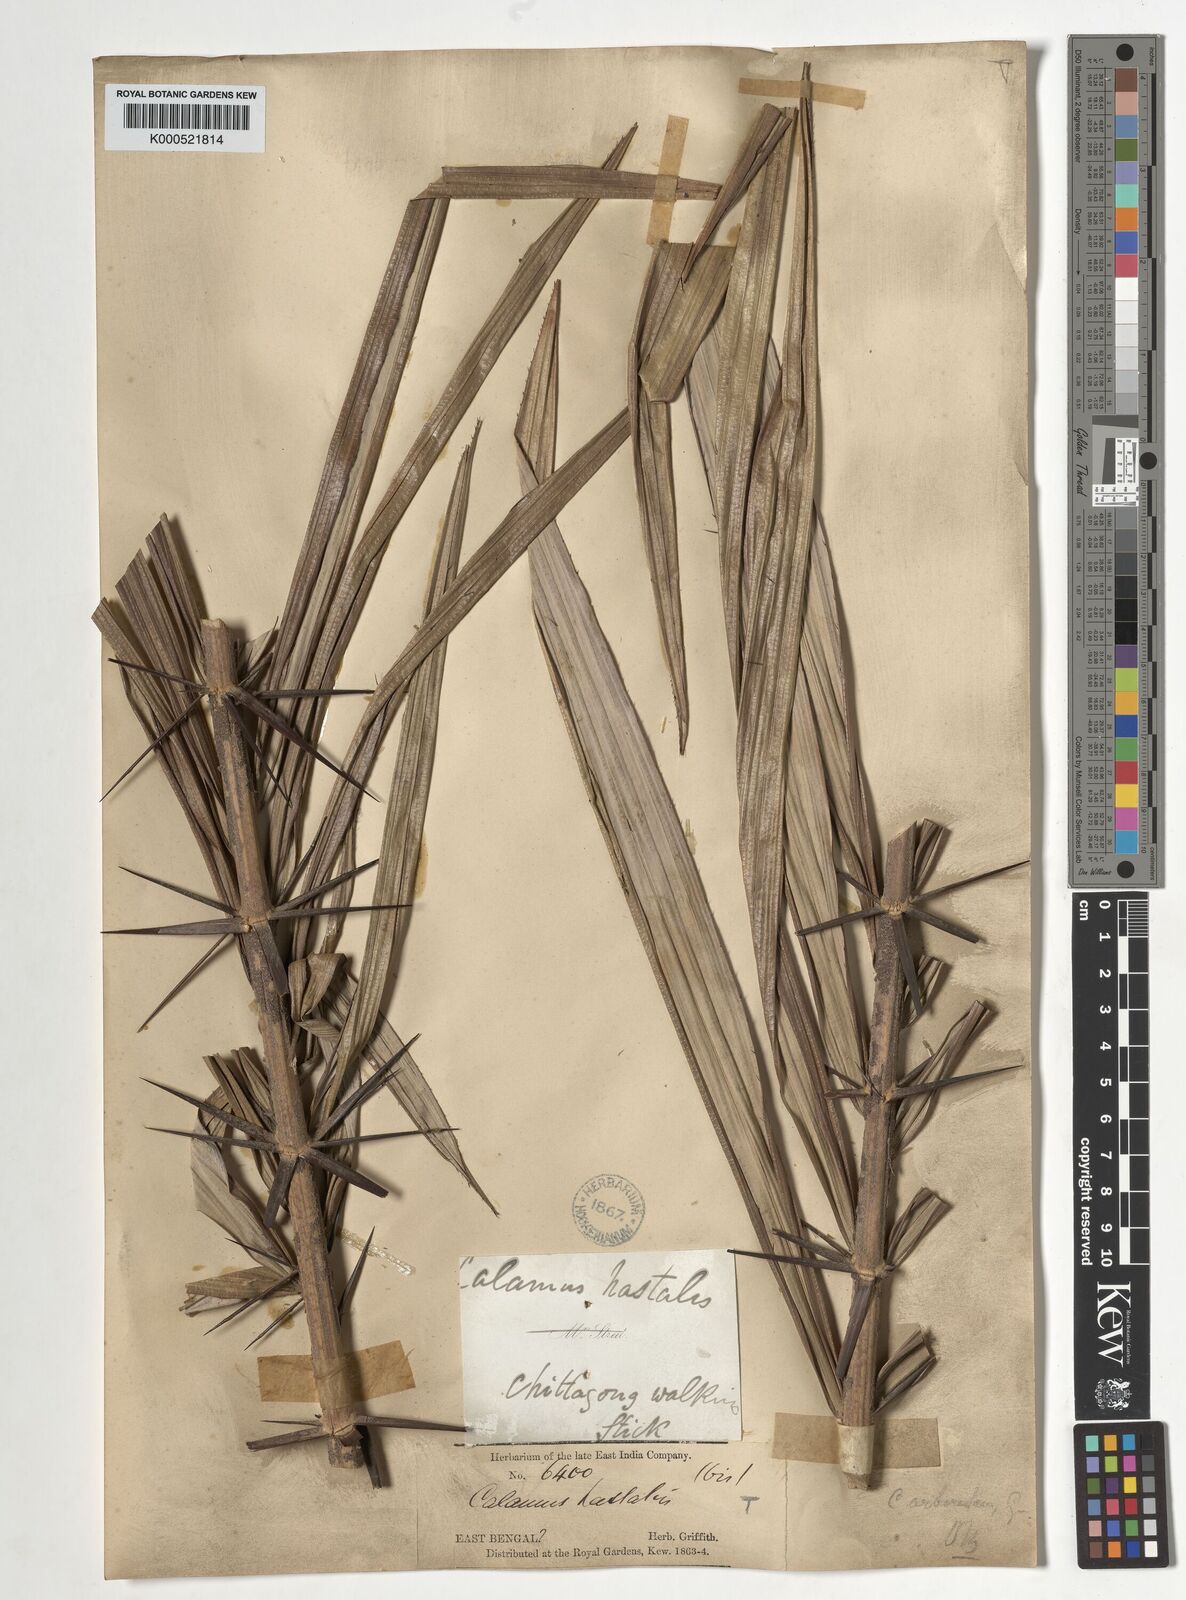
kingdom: Plantae
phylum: Tracheophyta
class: Liliopsida
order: Arecales
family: Arecaceae
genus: Calamus
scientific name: Calamus arborescens
